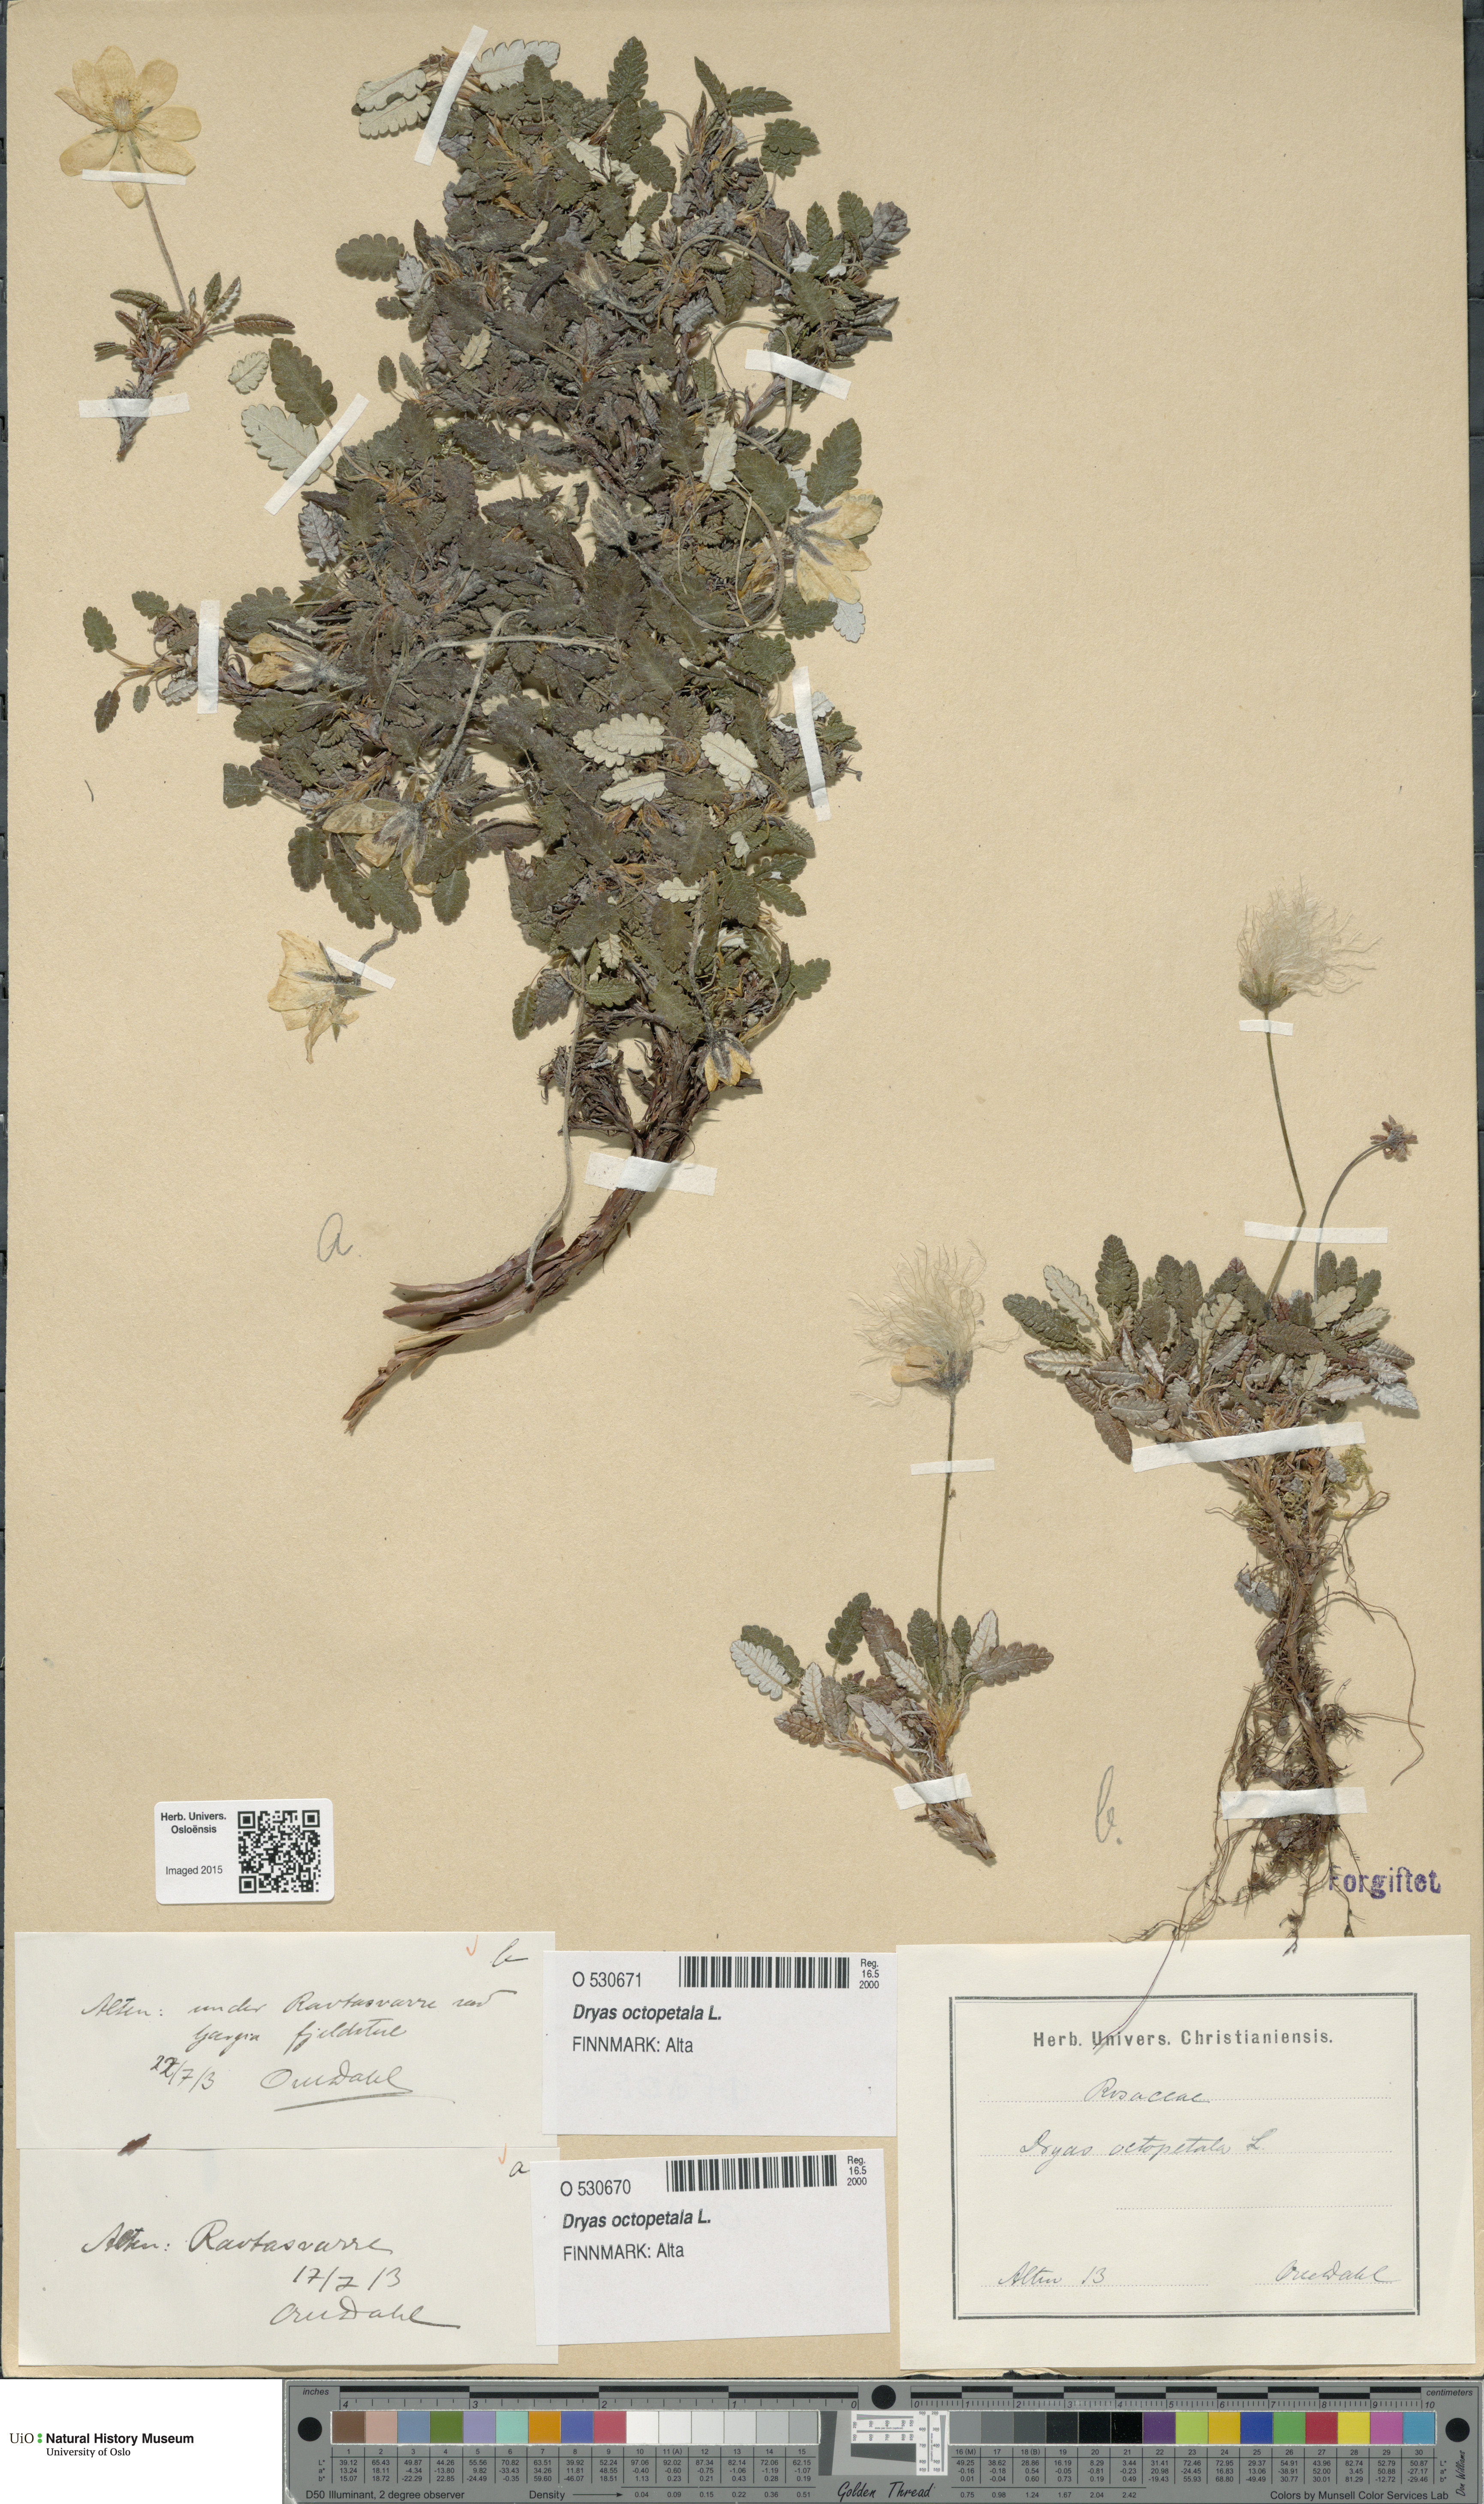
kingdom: Plantae
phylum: Tracheophyta
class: Magnoliopsida
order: Rosales
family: Rosaceae
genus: Dryas
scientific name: Dryas octopetala
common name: Eight-petal mountain-avens
